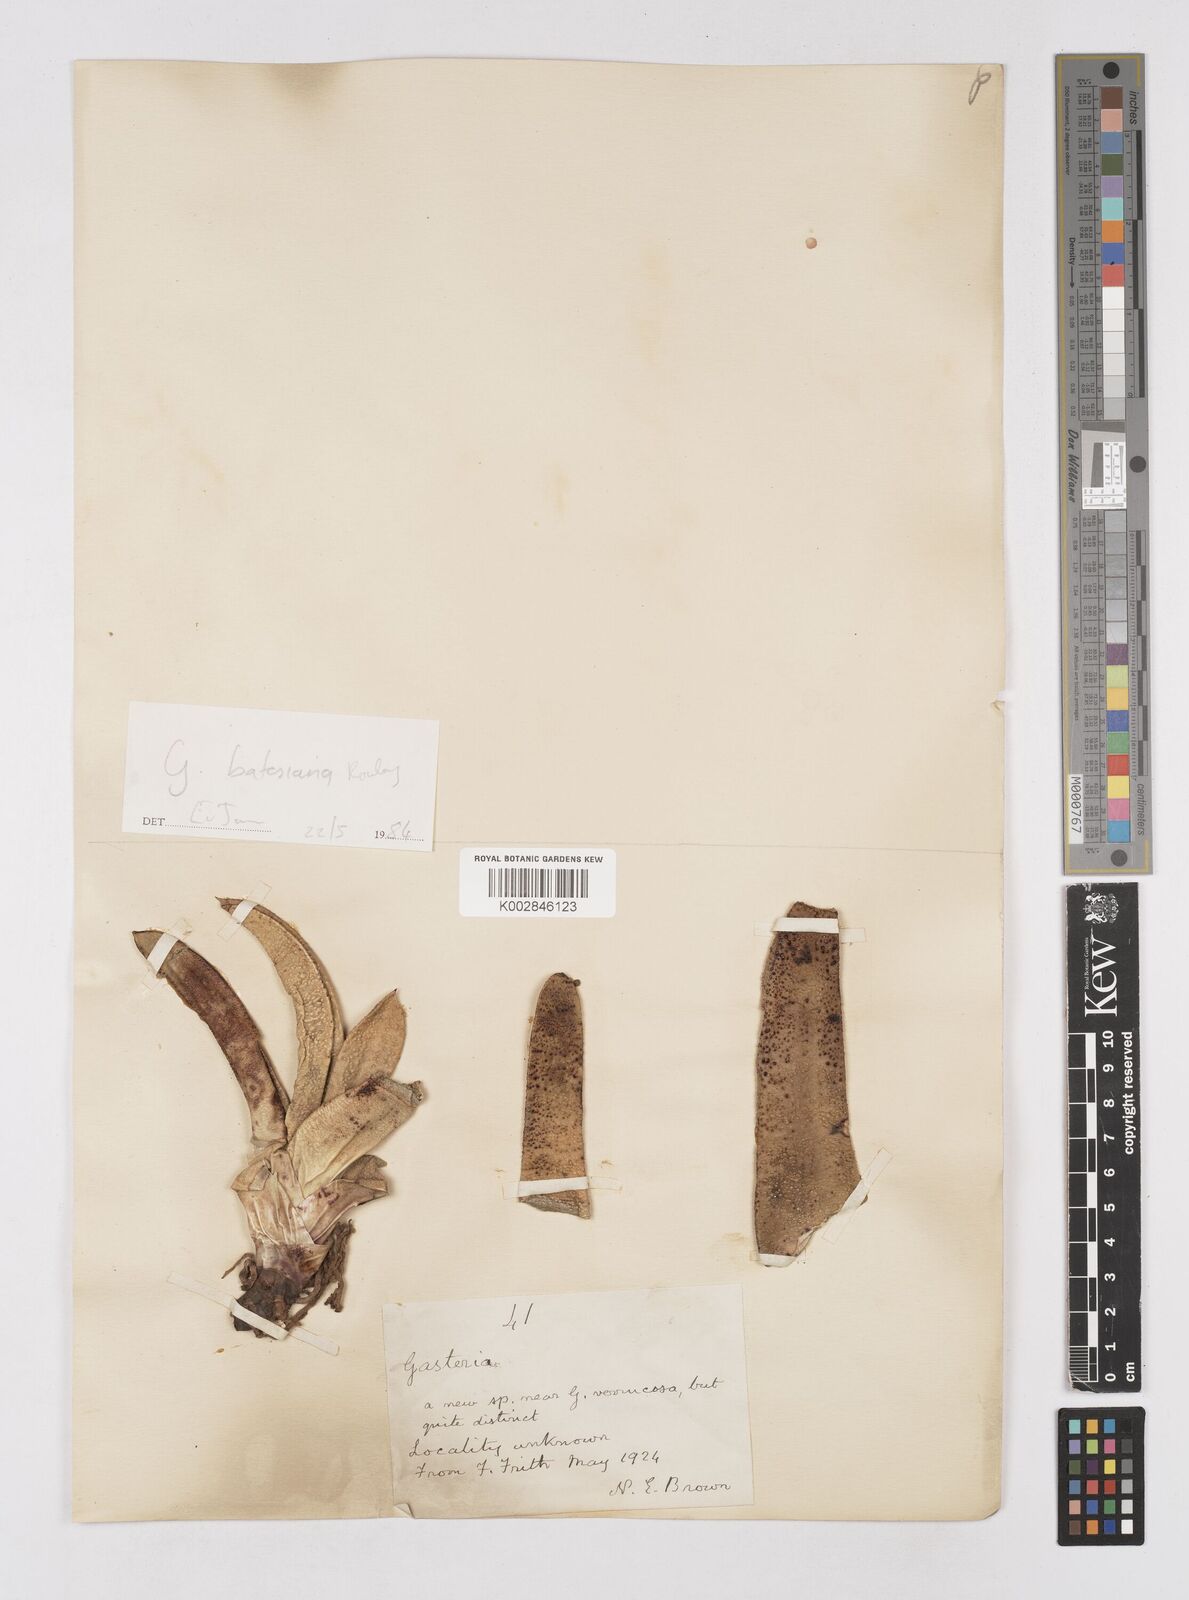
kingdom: Plantae
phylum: Tracheophyta
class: Liliopsida
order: Asparagales
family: Asphodelaceae
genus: Gasteria
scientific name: Gasteria
